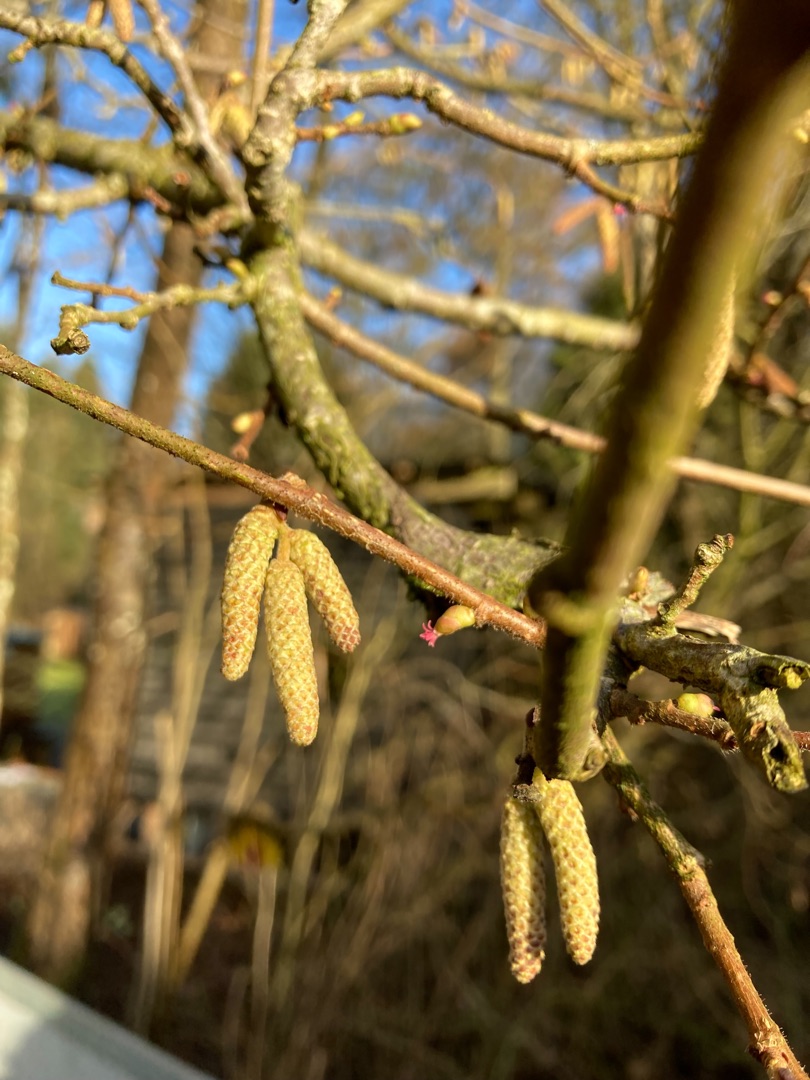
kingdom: Plantae
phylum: Tracheophyta
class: Magnoliopsida
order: Fagales
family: Betulaceae
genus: Corylus
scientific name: Corylus avellana
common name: Hassel
